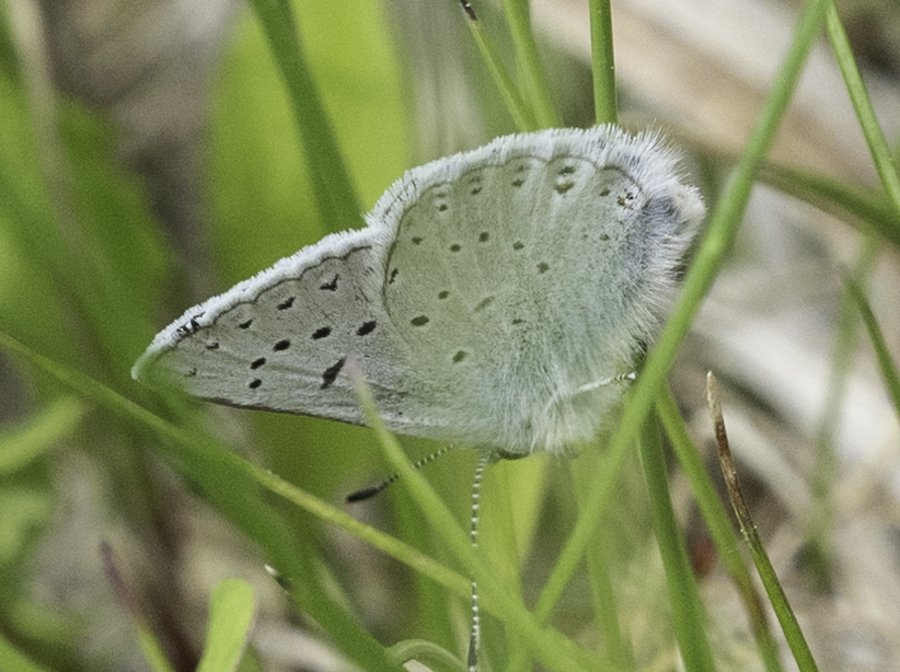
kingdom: Animalia
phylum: Arthropoda
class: Insecta
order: Lepidoptera
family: Lycaenidae
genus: Plebejus
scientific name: Plebejus saepiolus
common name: Greenish Blue
